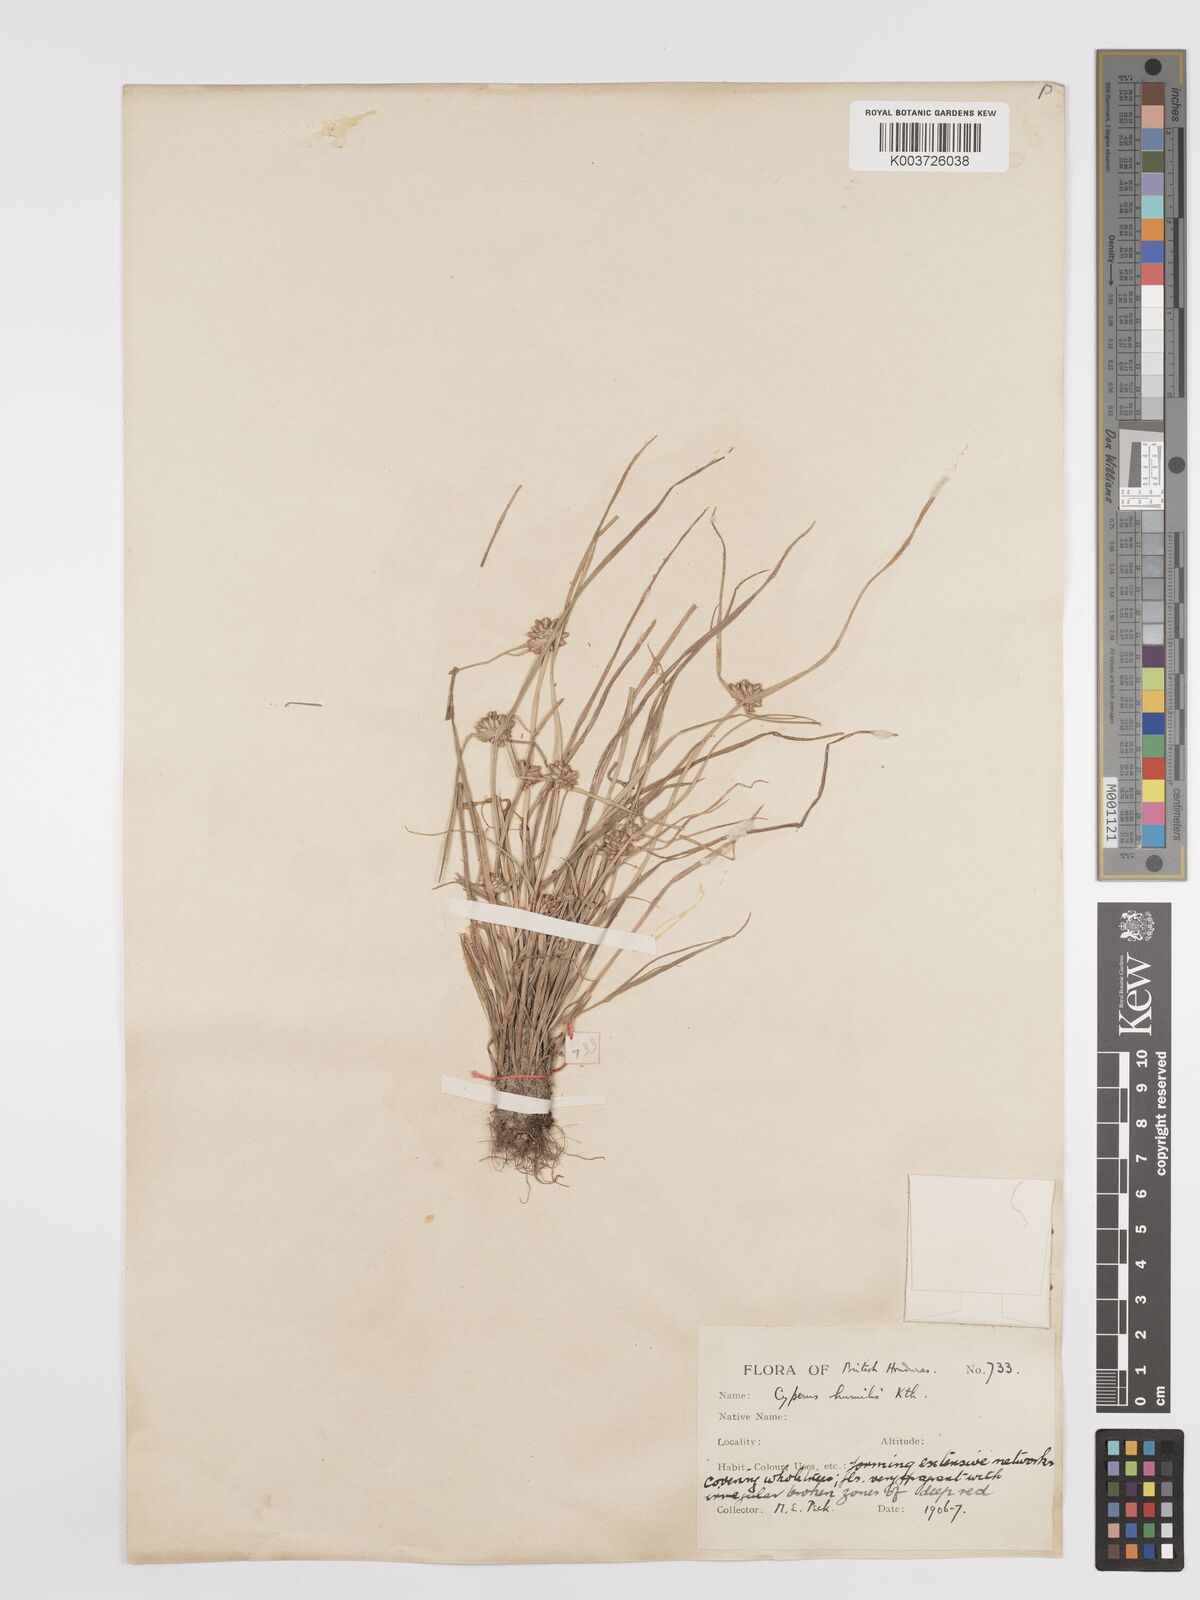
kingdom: Plantae
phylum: Tracheophyta
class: Liliopsida
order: Poales
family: Cyperaceae
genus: Cyperus
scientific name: Cyperus humilis
